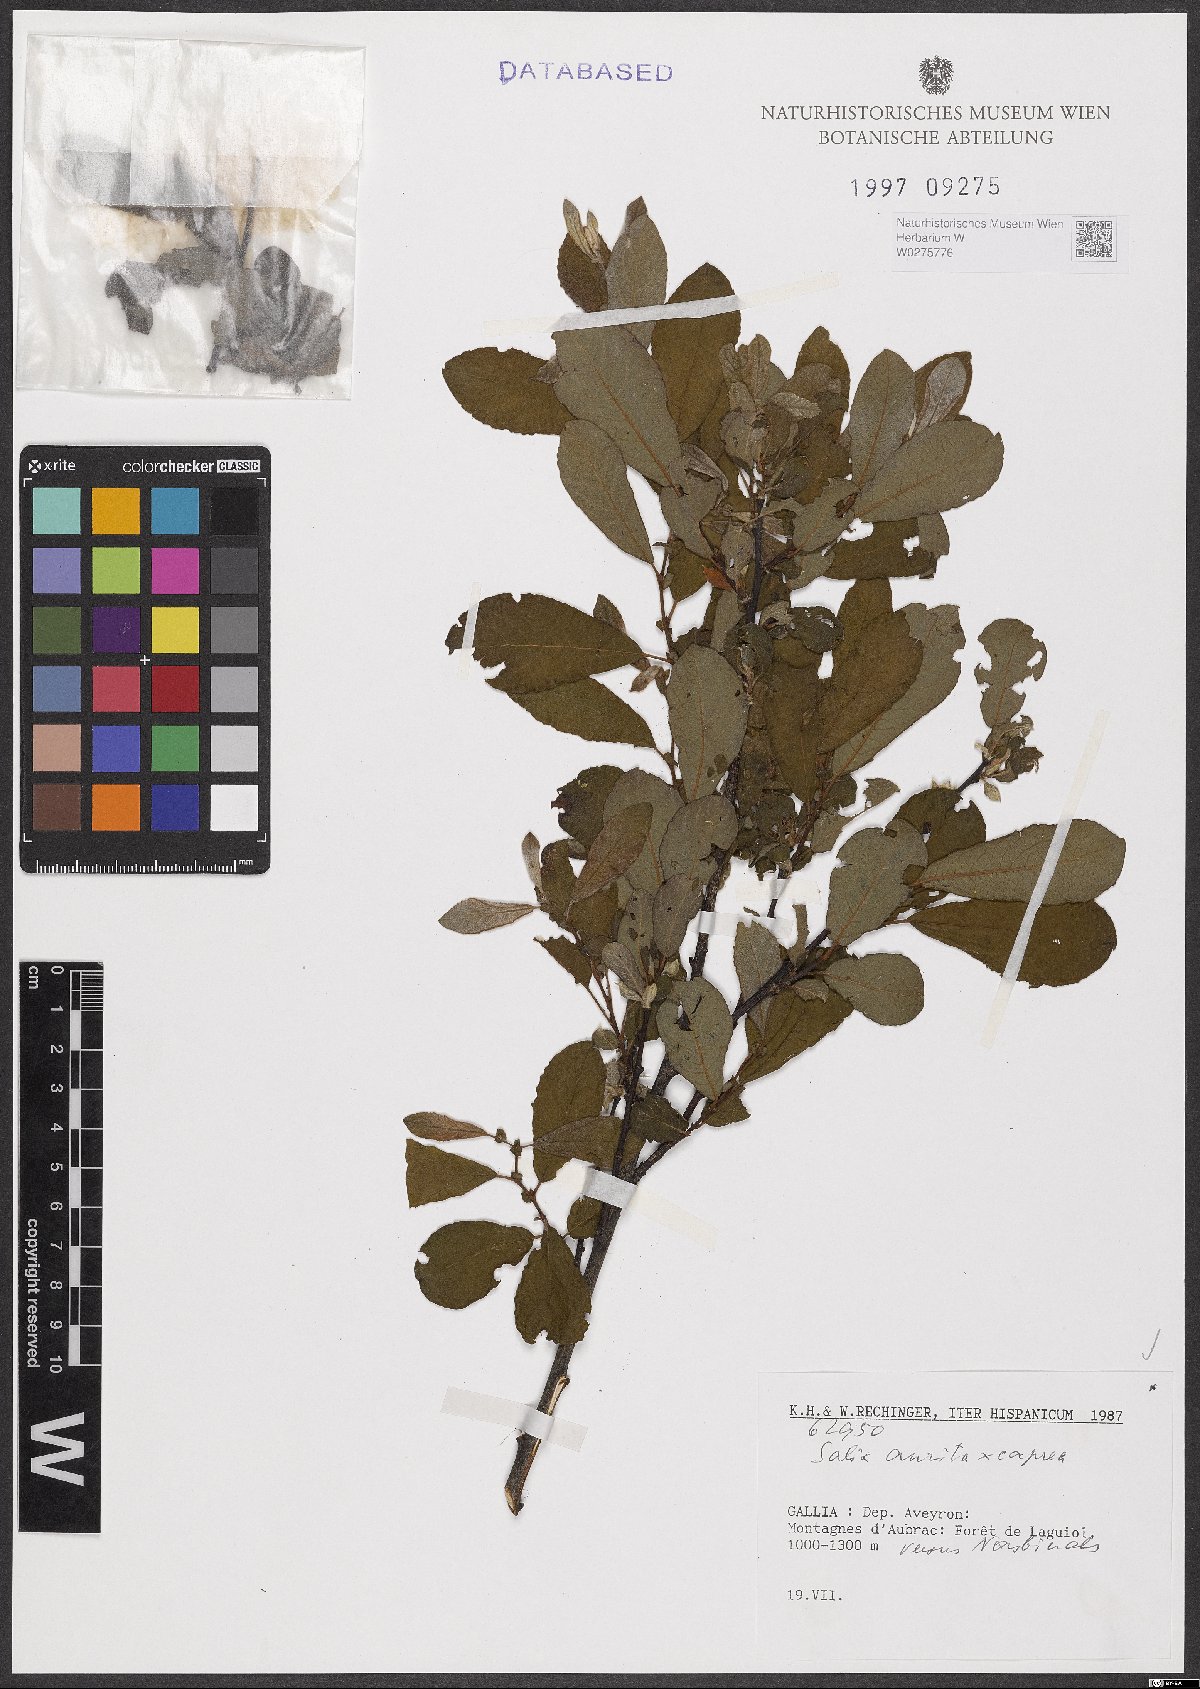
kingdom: Plantae
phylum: Tracheophyta
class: Magnoliopsida
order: Malpighiales
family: Salicaceae
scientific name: Salicaceae
